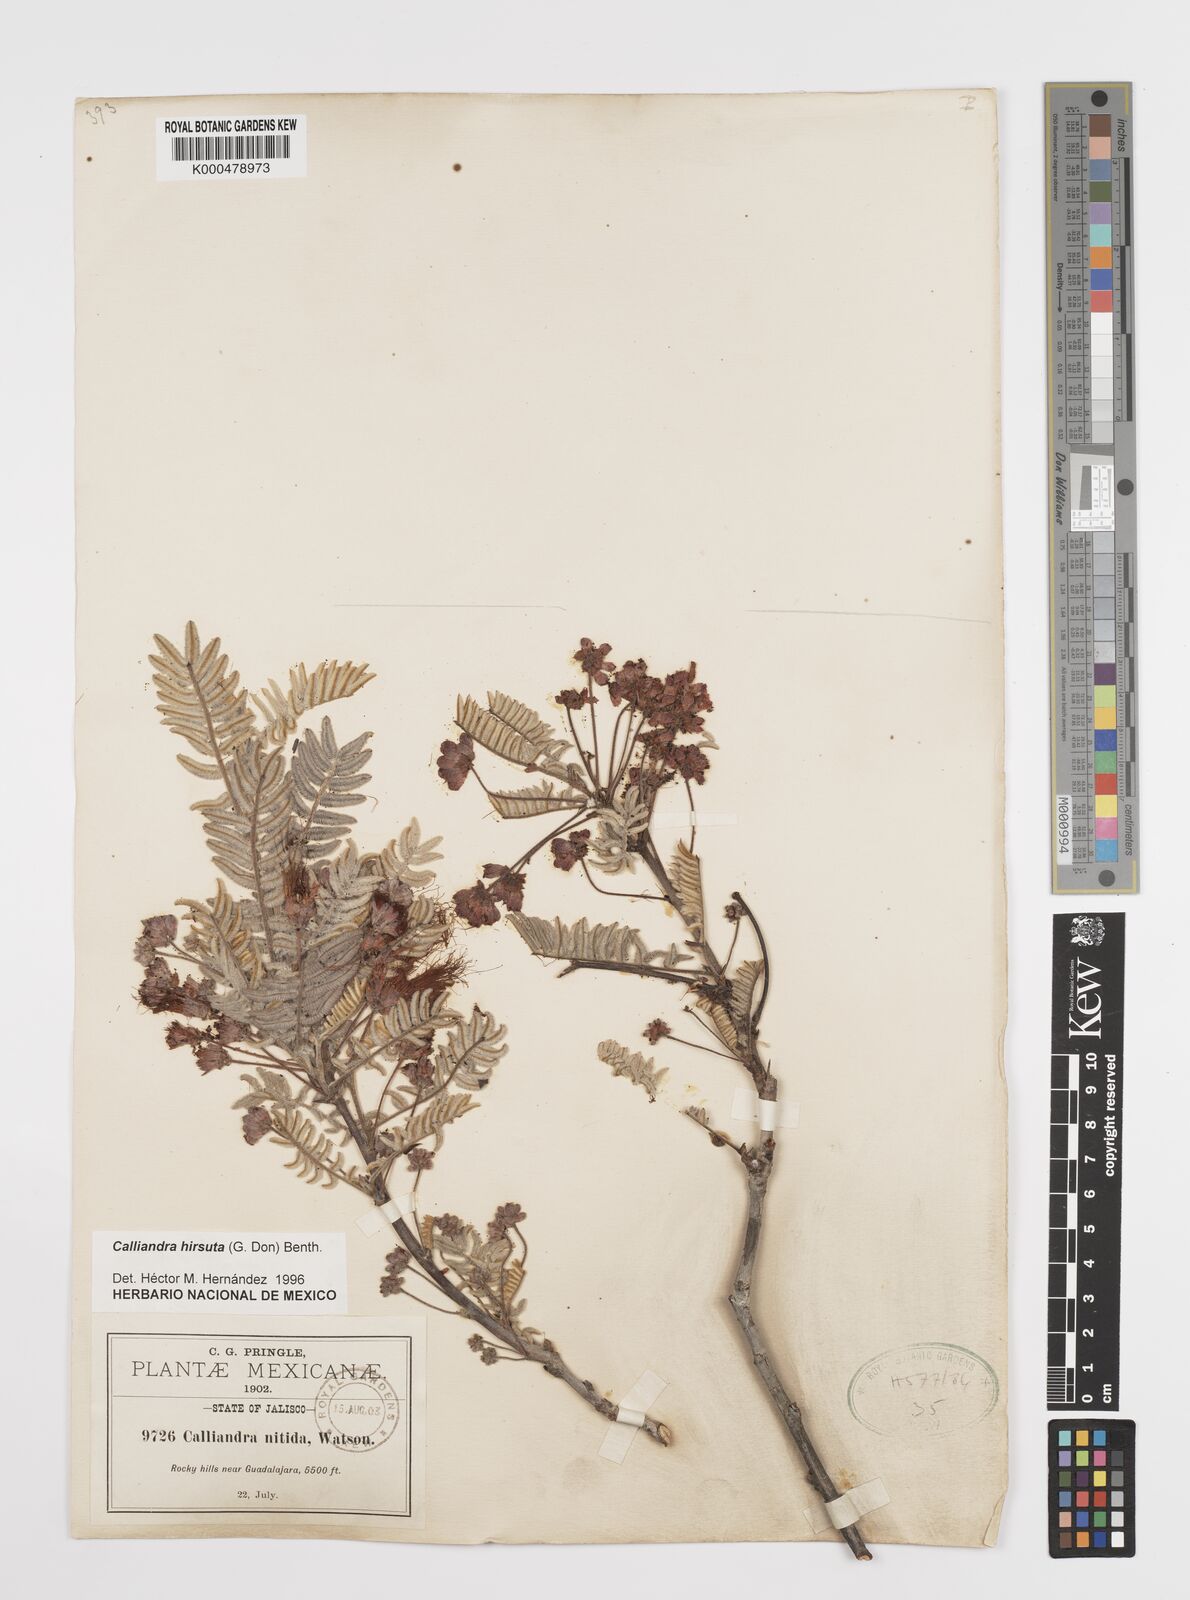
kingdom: Plantae
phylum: Tracheophyta
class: Magnoliopsida
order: Fabales
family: Fabaceae
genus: Calliandra
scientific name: Calliandra hirsuta
